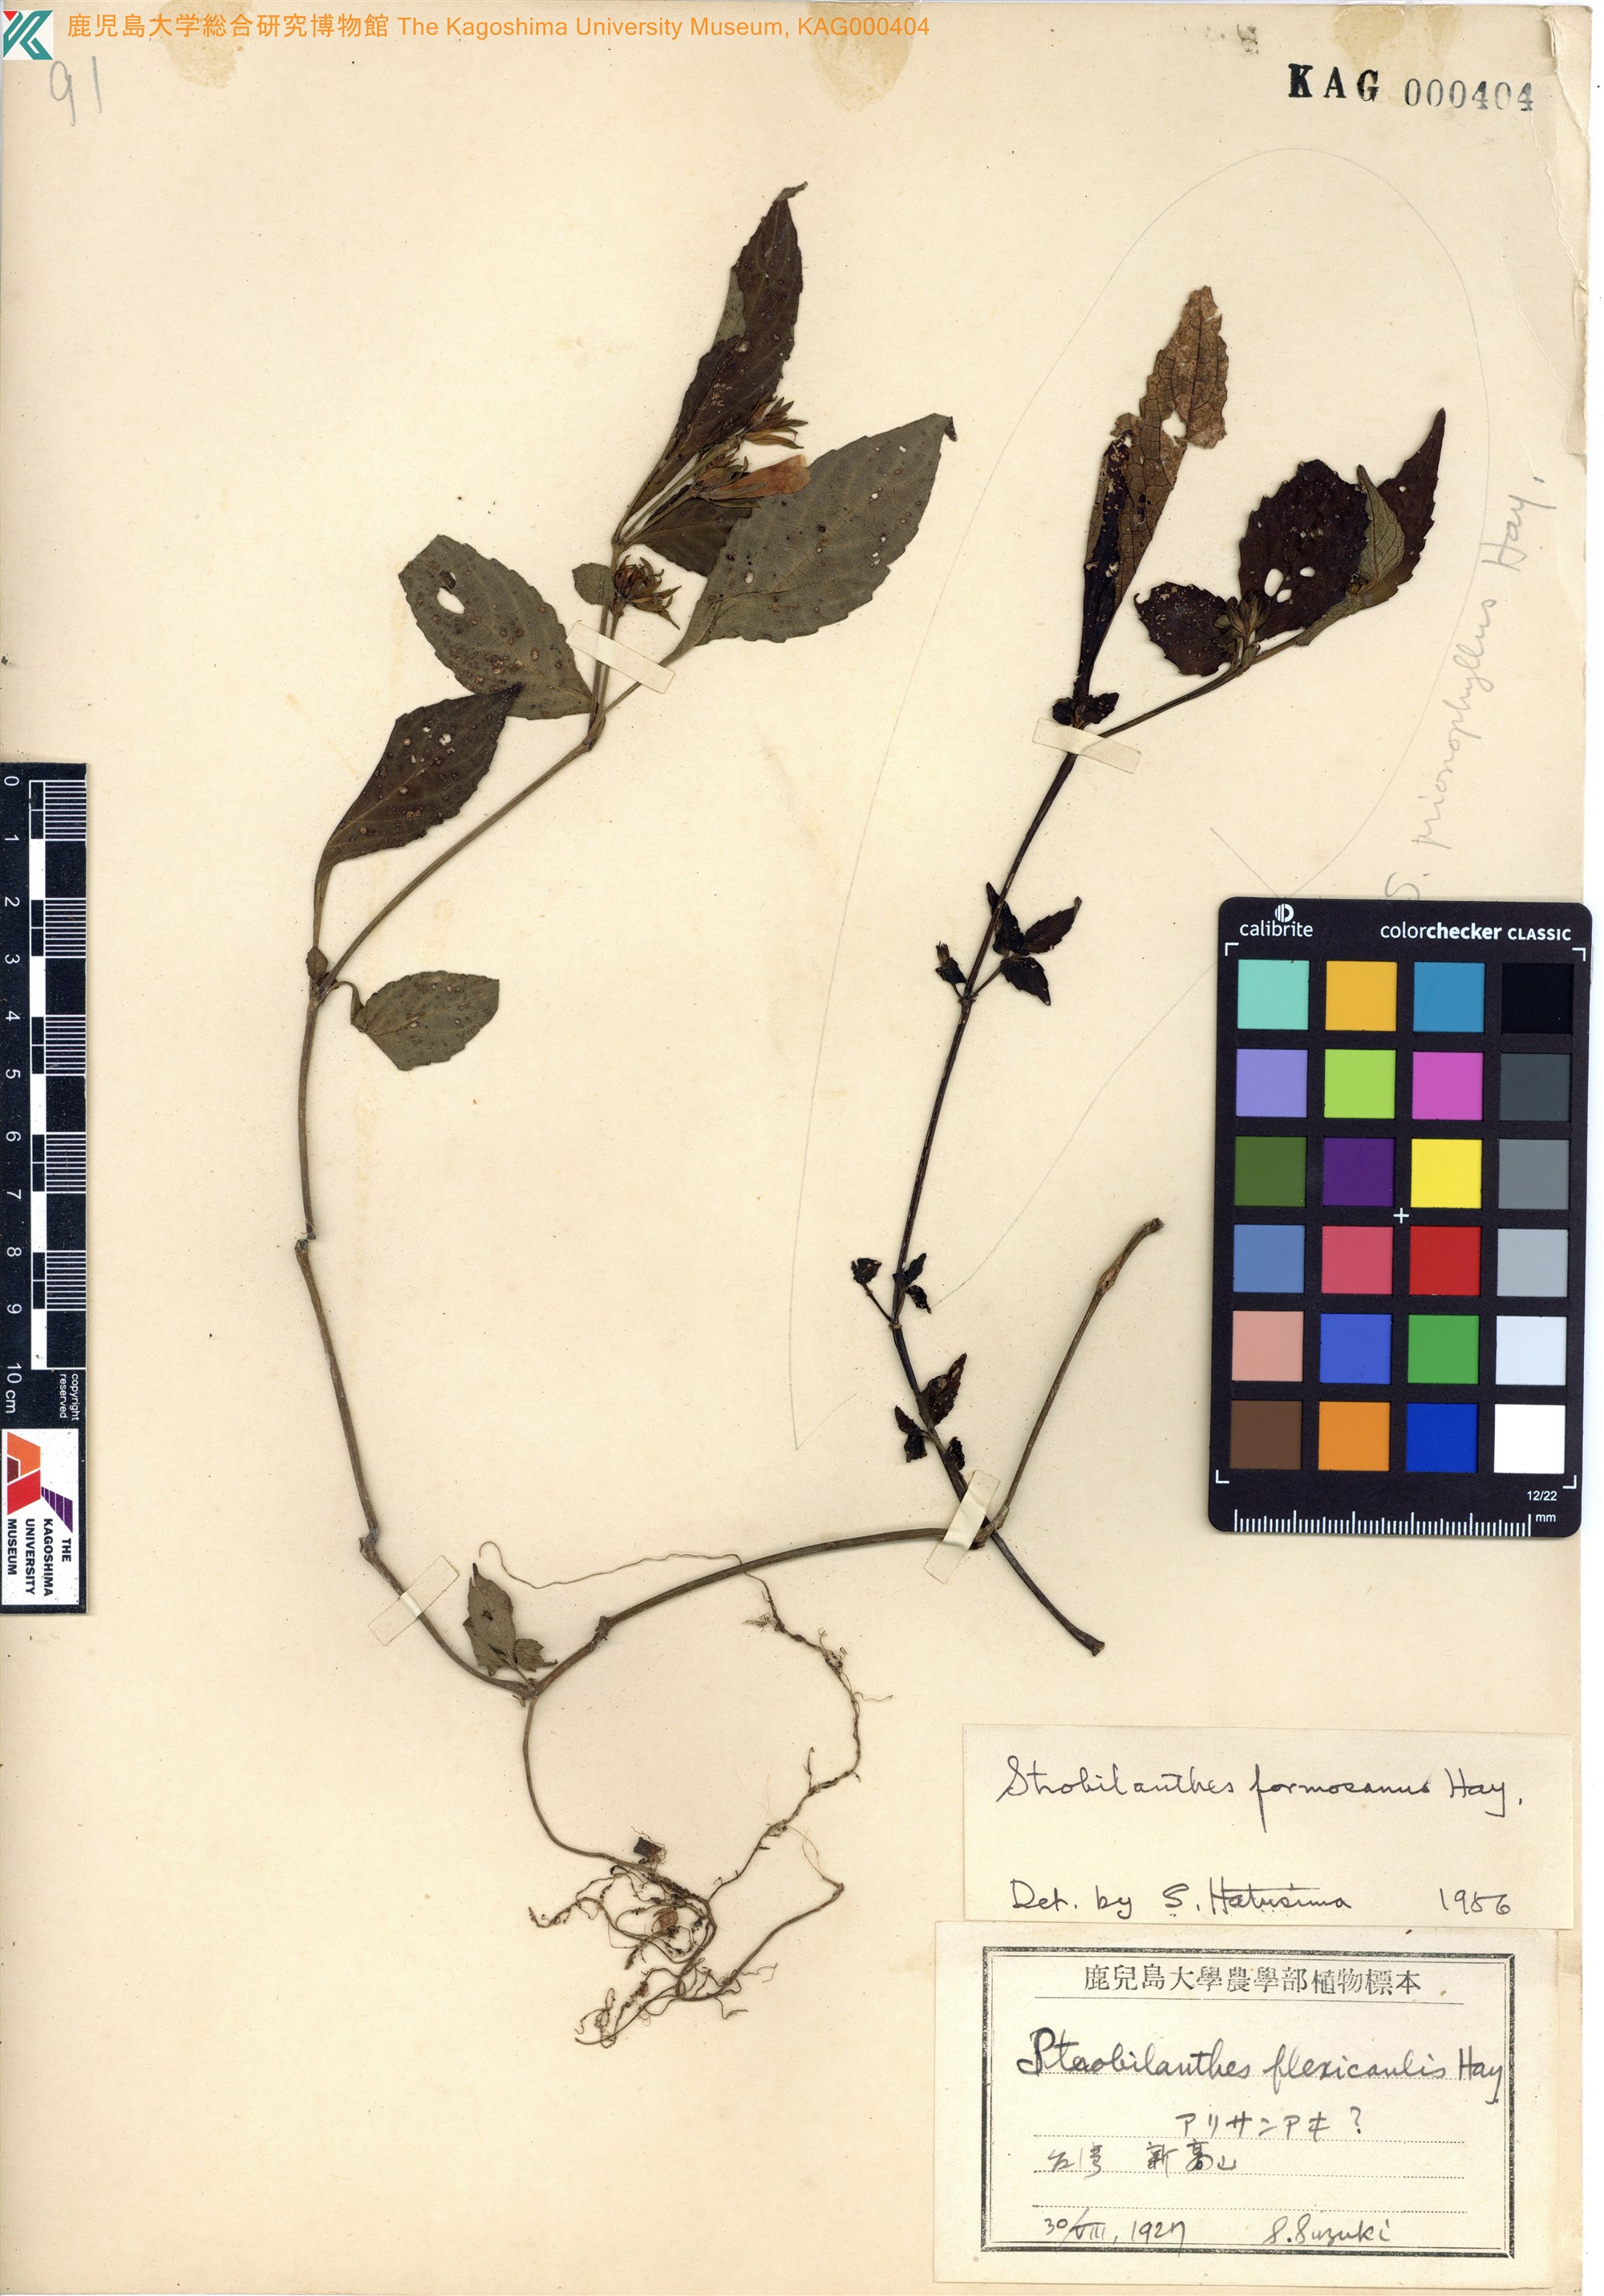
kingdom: Plantae
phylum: Tracheophyta
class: Magnoliopsida
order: Lamiales
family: Acanthaceae
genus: Strobilanthes
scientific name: Strobilanthes formosana
